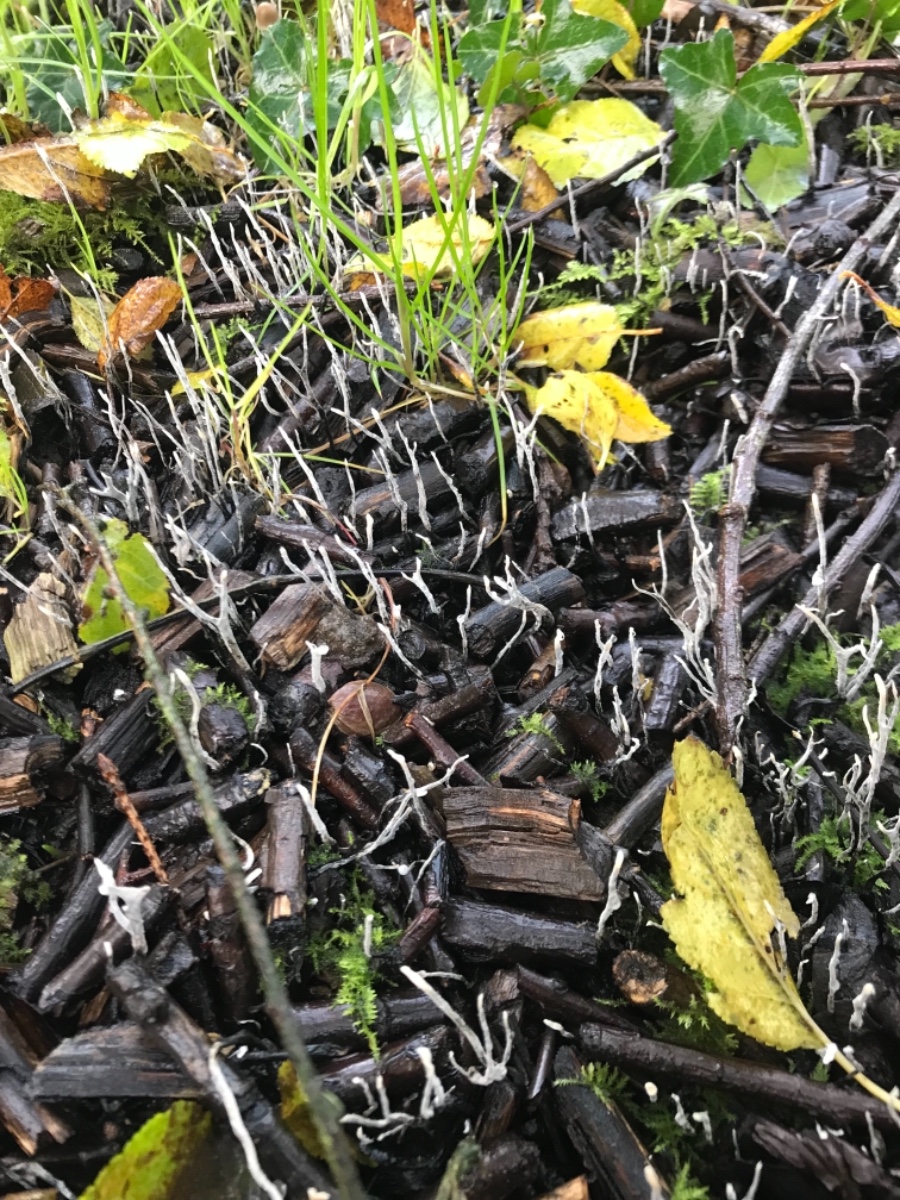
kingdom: Fungi
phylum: Ascomycota
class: Sordariomycetes
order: Xylariales
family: Xylariaceae
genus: Xylaria
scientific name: Xylaria hypoxylon
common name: grenet stødsvamp
